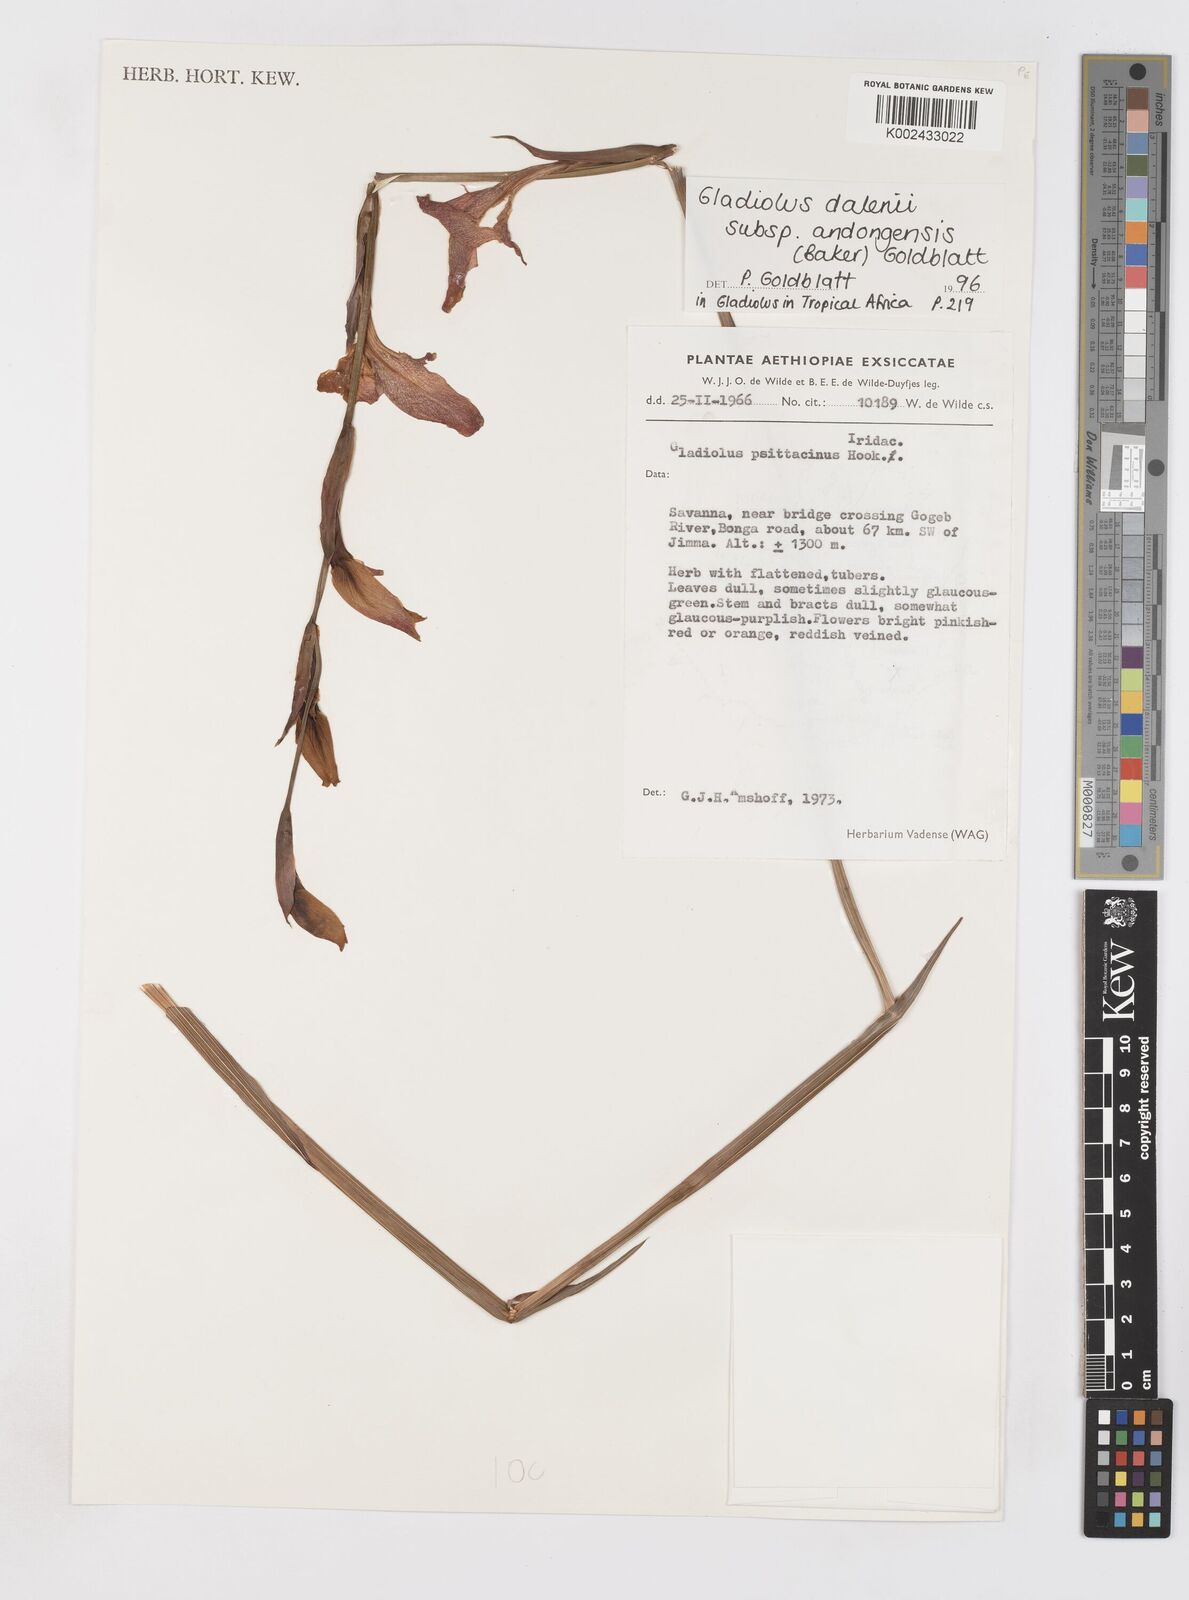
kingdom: Plantae
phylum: Tracheophyta
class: Liliopsida
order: Asparagales
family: Iridaceae
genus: Gladiolus
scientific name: Gladiolus dalenii
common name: Cornflag
